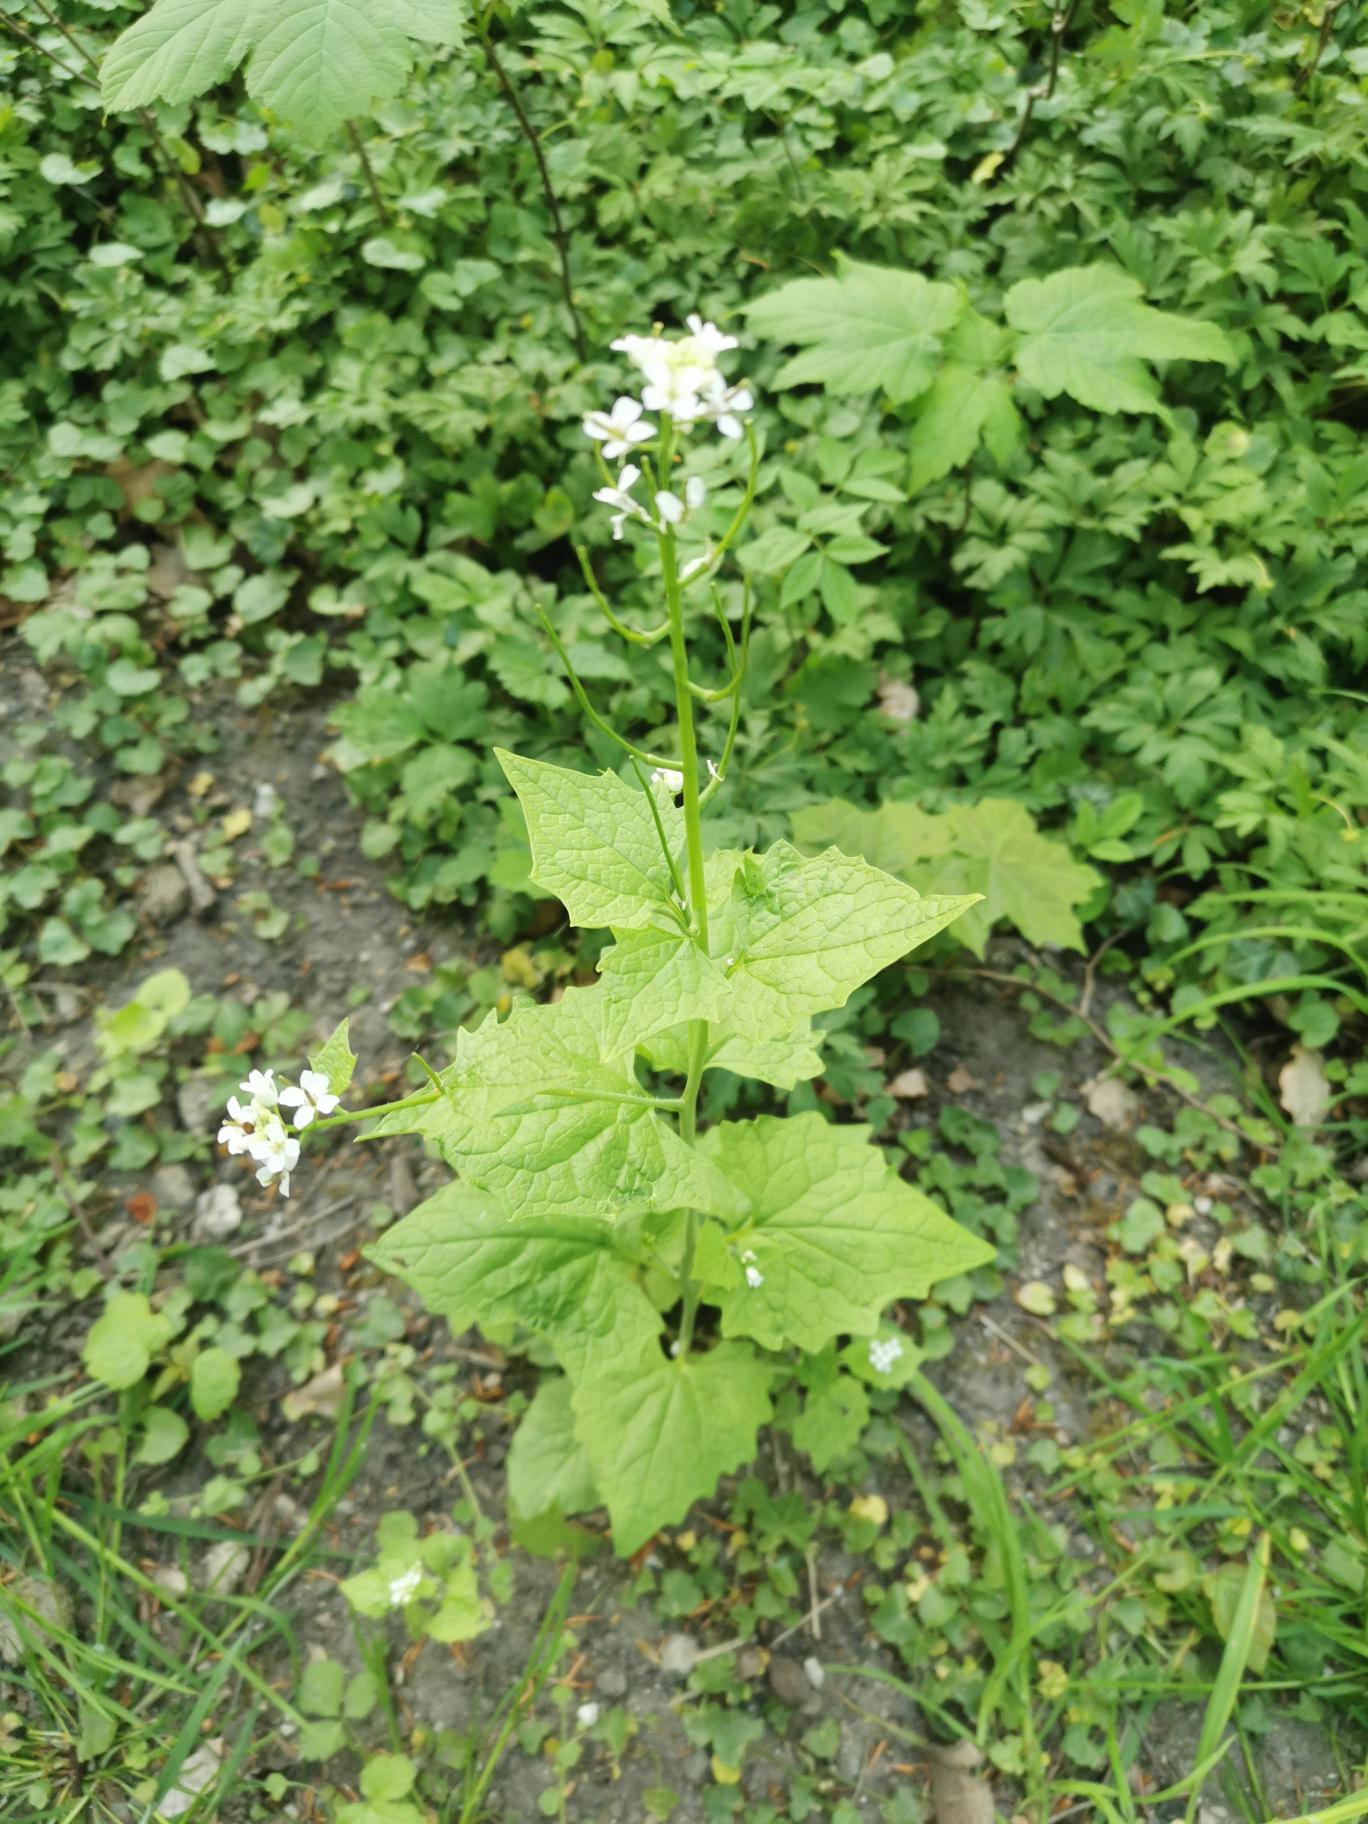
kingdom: Plantae
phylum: Tracheophyta
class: Magnoliopsida
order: Brassicales
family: Brassicaceae
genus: Alliaria
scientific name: Alliaria petiolata
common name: Løgkarse
